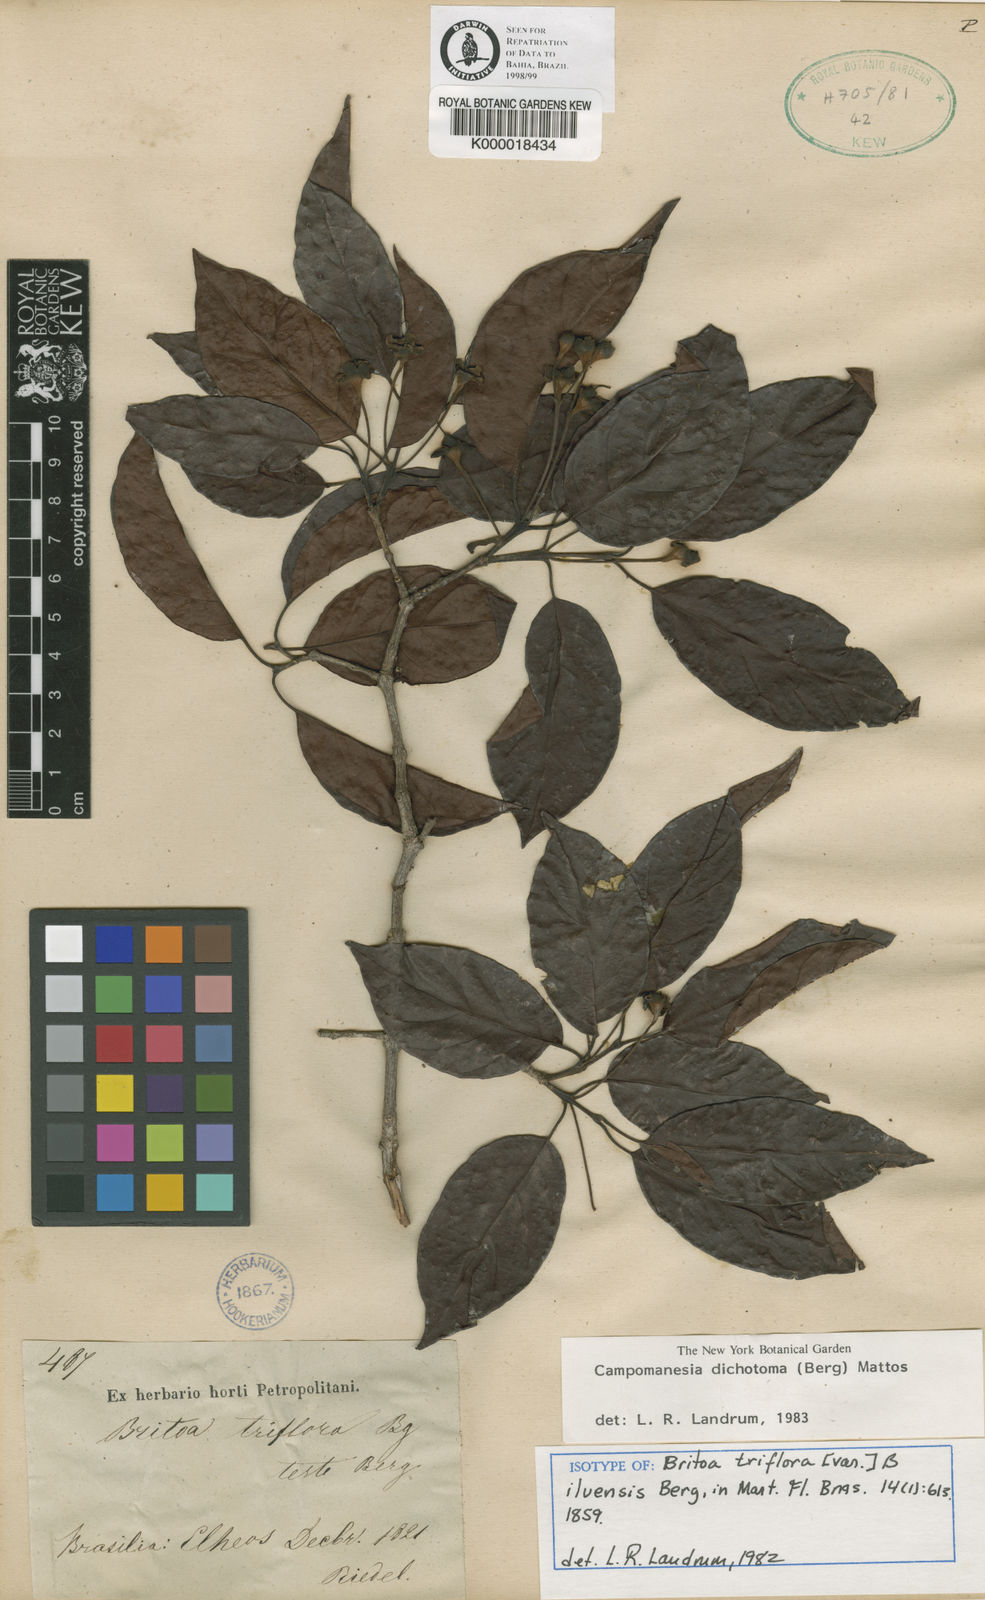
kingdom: Plantae
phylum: Tracheophyta
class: Magnoliopsida
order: Myrtales
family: Myrtaceae
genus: Campomanesia
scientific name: Campomanesia dichotoma
